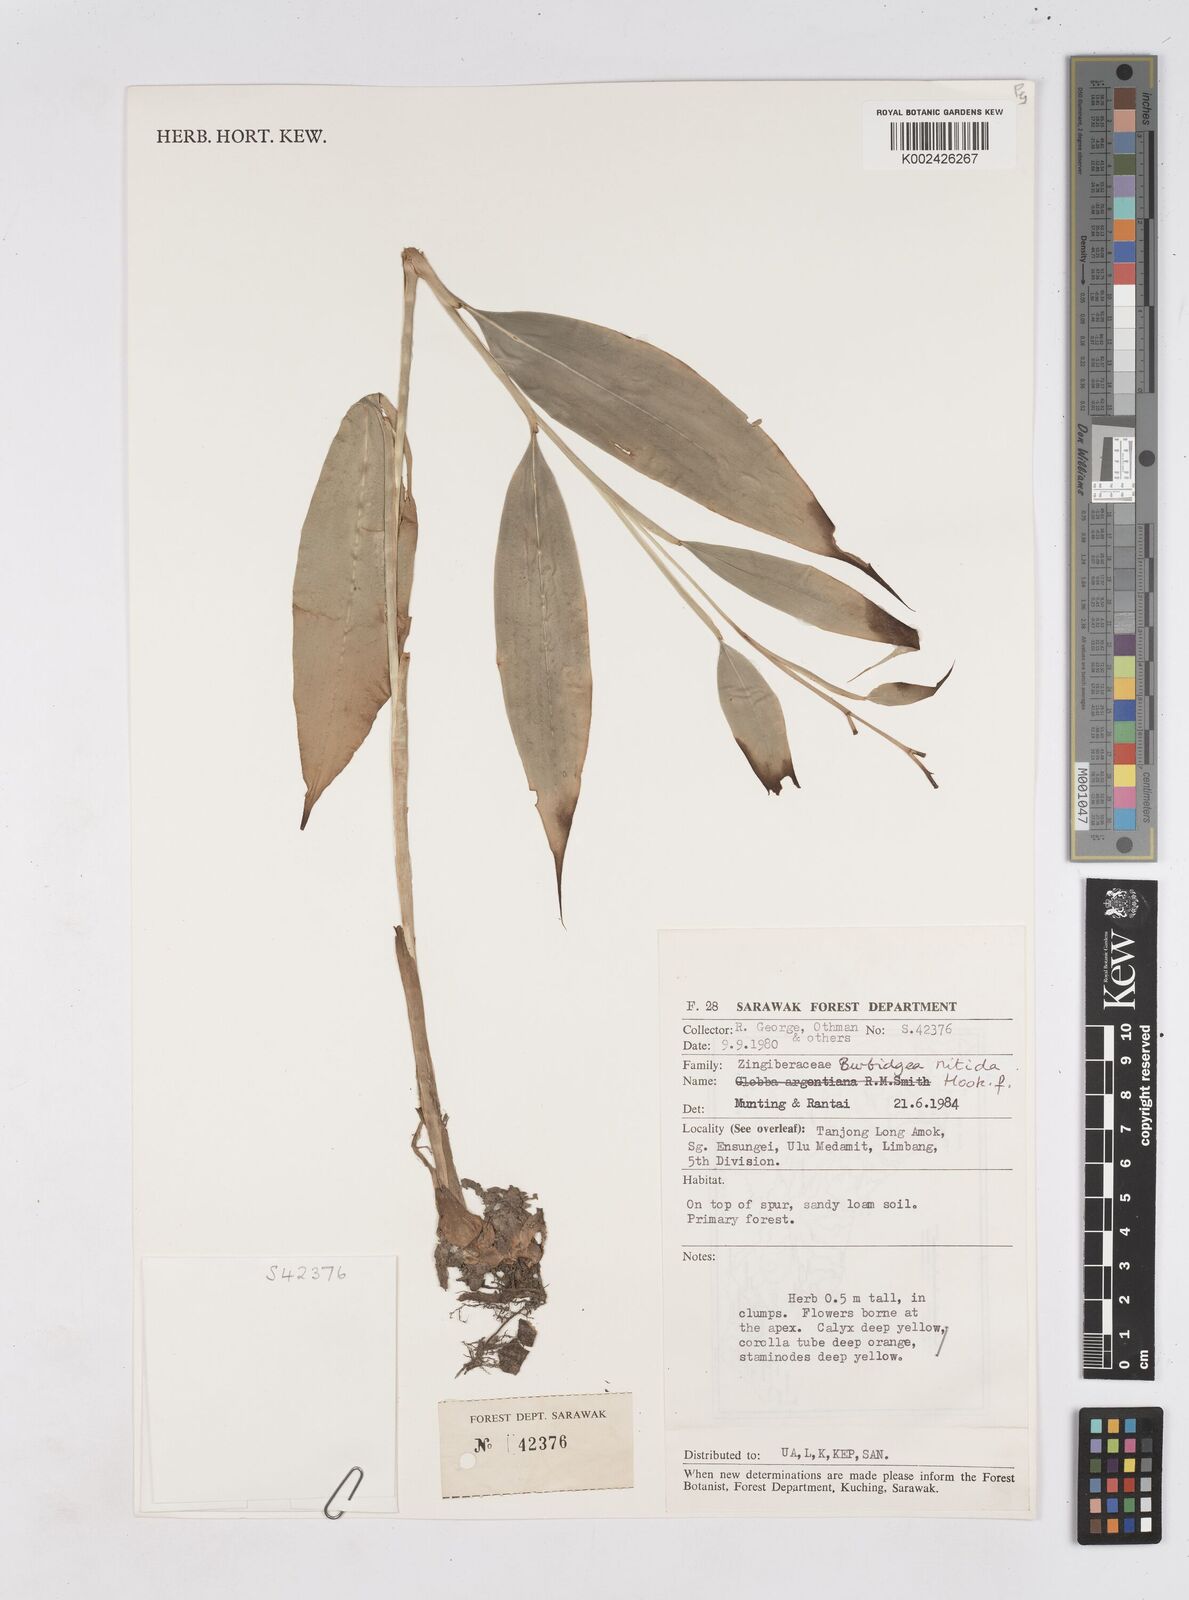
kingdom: Plantae
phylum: Tracheophyta
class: Liliopsida
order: Zingiberales
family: Zingiberaceae
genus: Burbidgea
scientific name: Burbidgea nitida
